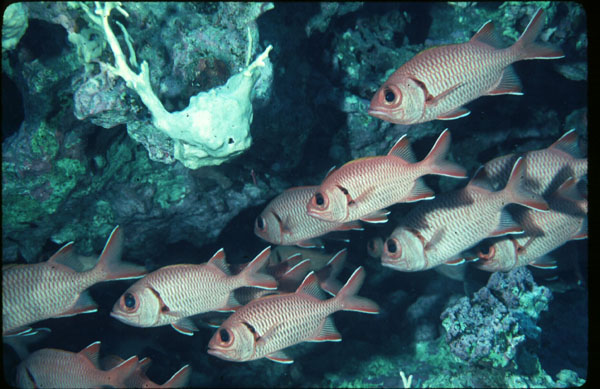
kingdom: Animalia
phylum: Chordata
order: Beryciformes
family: Holocentridae
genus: Myripristis
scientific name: Myripristis berndti
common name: Bigscale soldierfish
